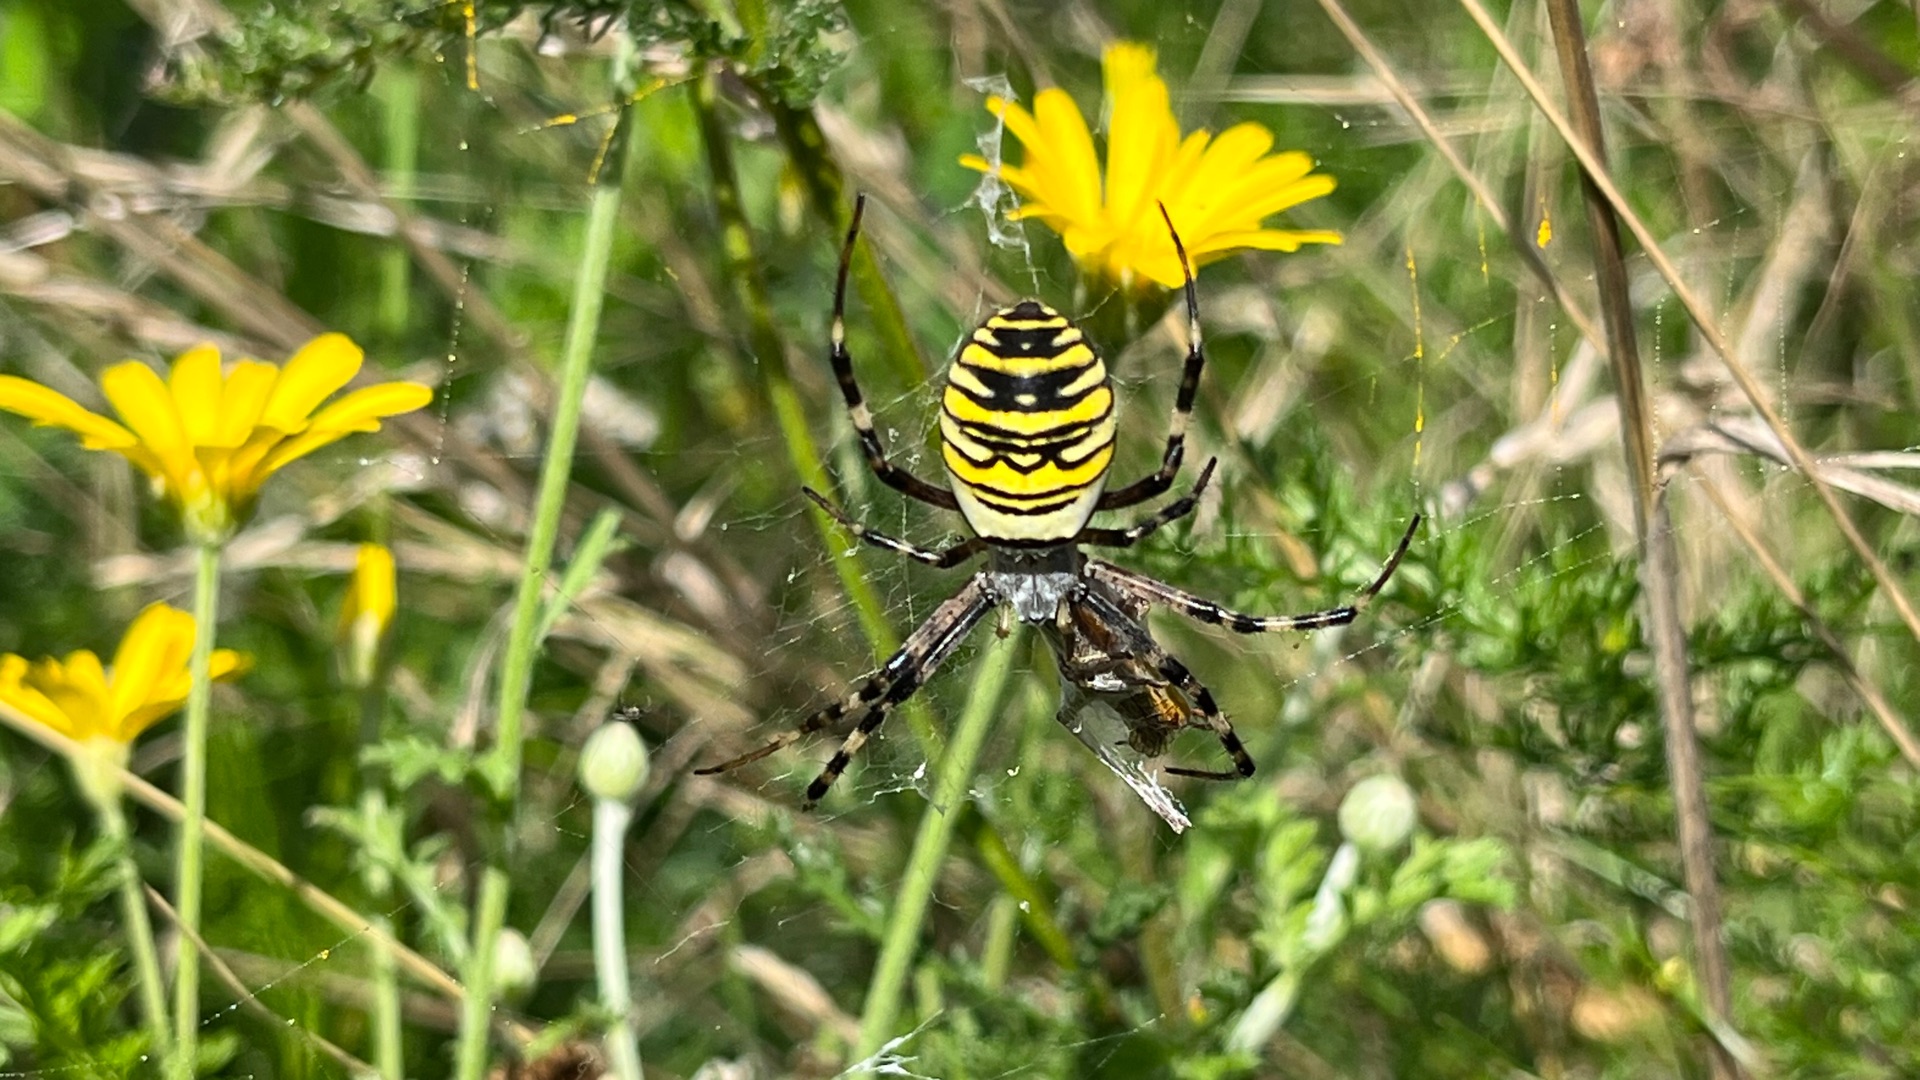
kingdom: Animalia
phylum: Arthropoda
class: Arachnida
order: Araneae
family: Araneidae
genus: Argiope
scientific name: Argiope bruennichi
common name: Hvepseedderkop
